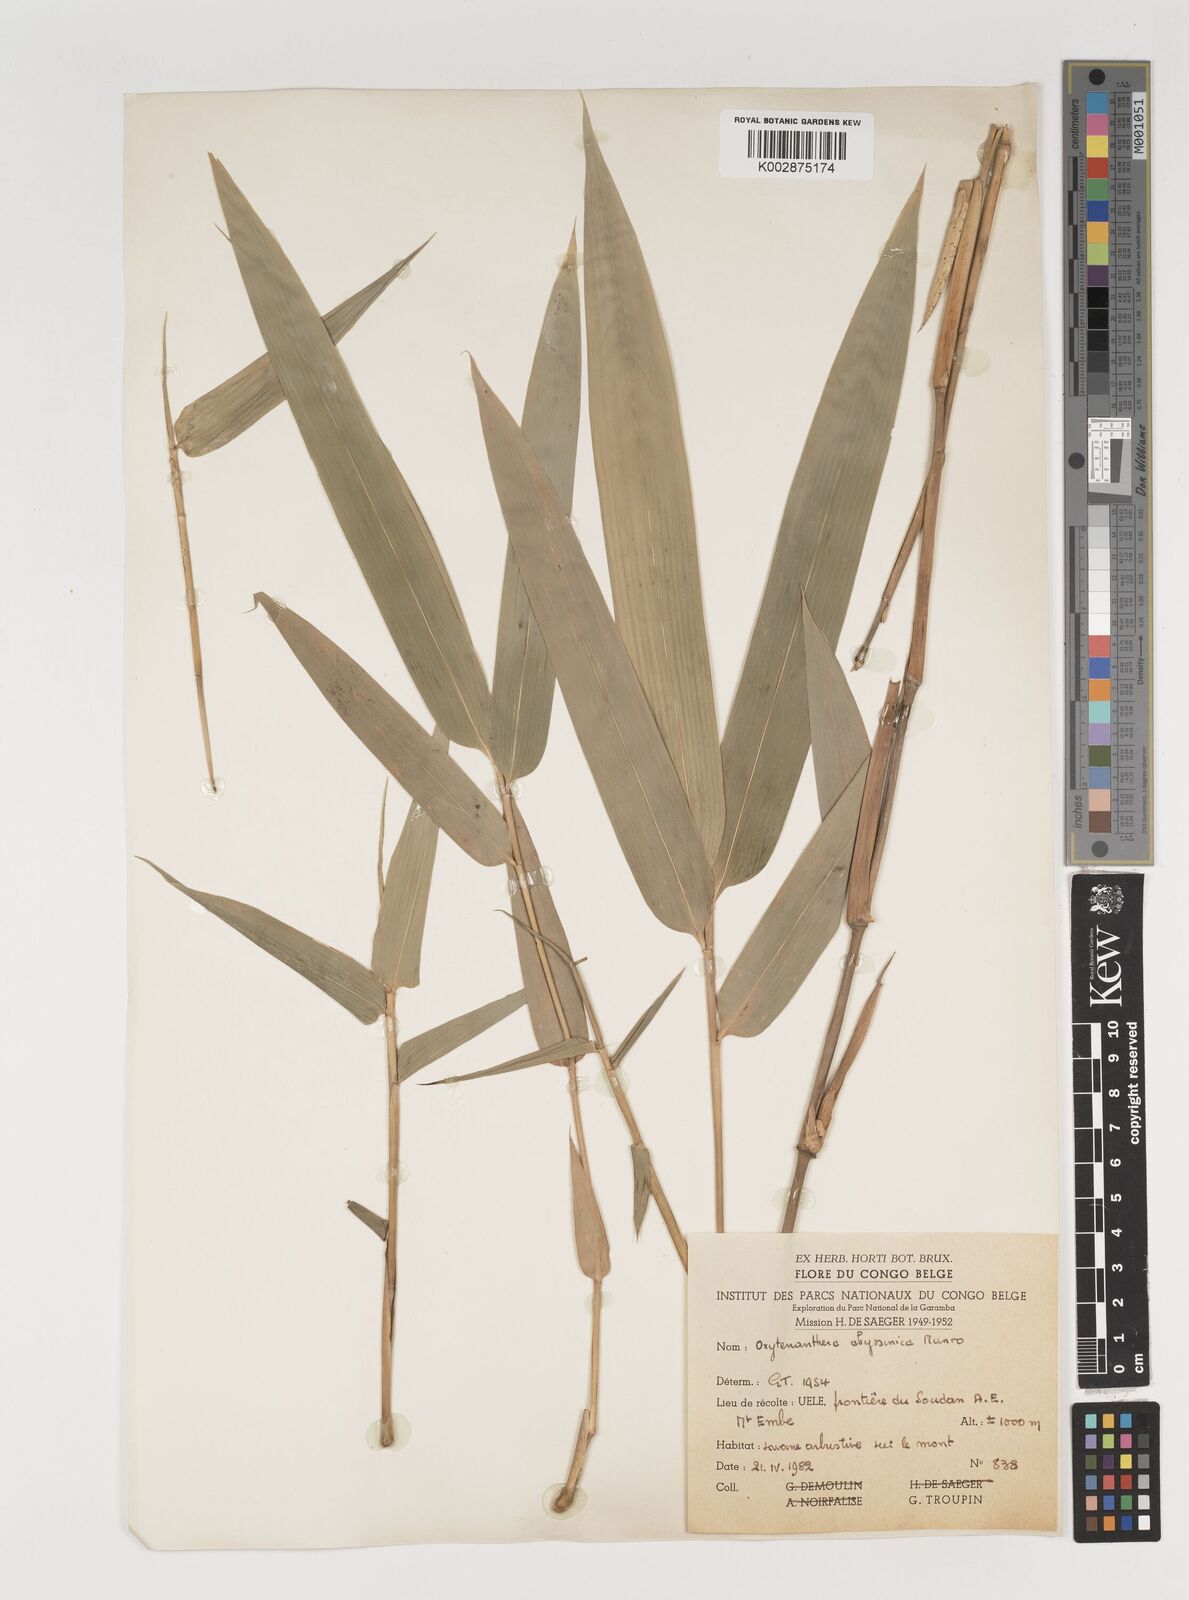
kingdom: Plantae
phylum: Tracheophyta
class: Liliopsida
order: Poales
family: Poaceae
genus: Oxytenanthera
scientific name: Oxytenanthera abyssinica
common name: Wine bamboo
